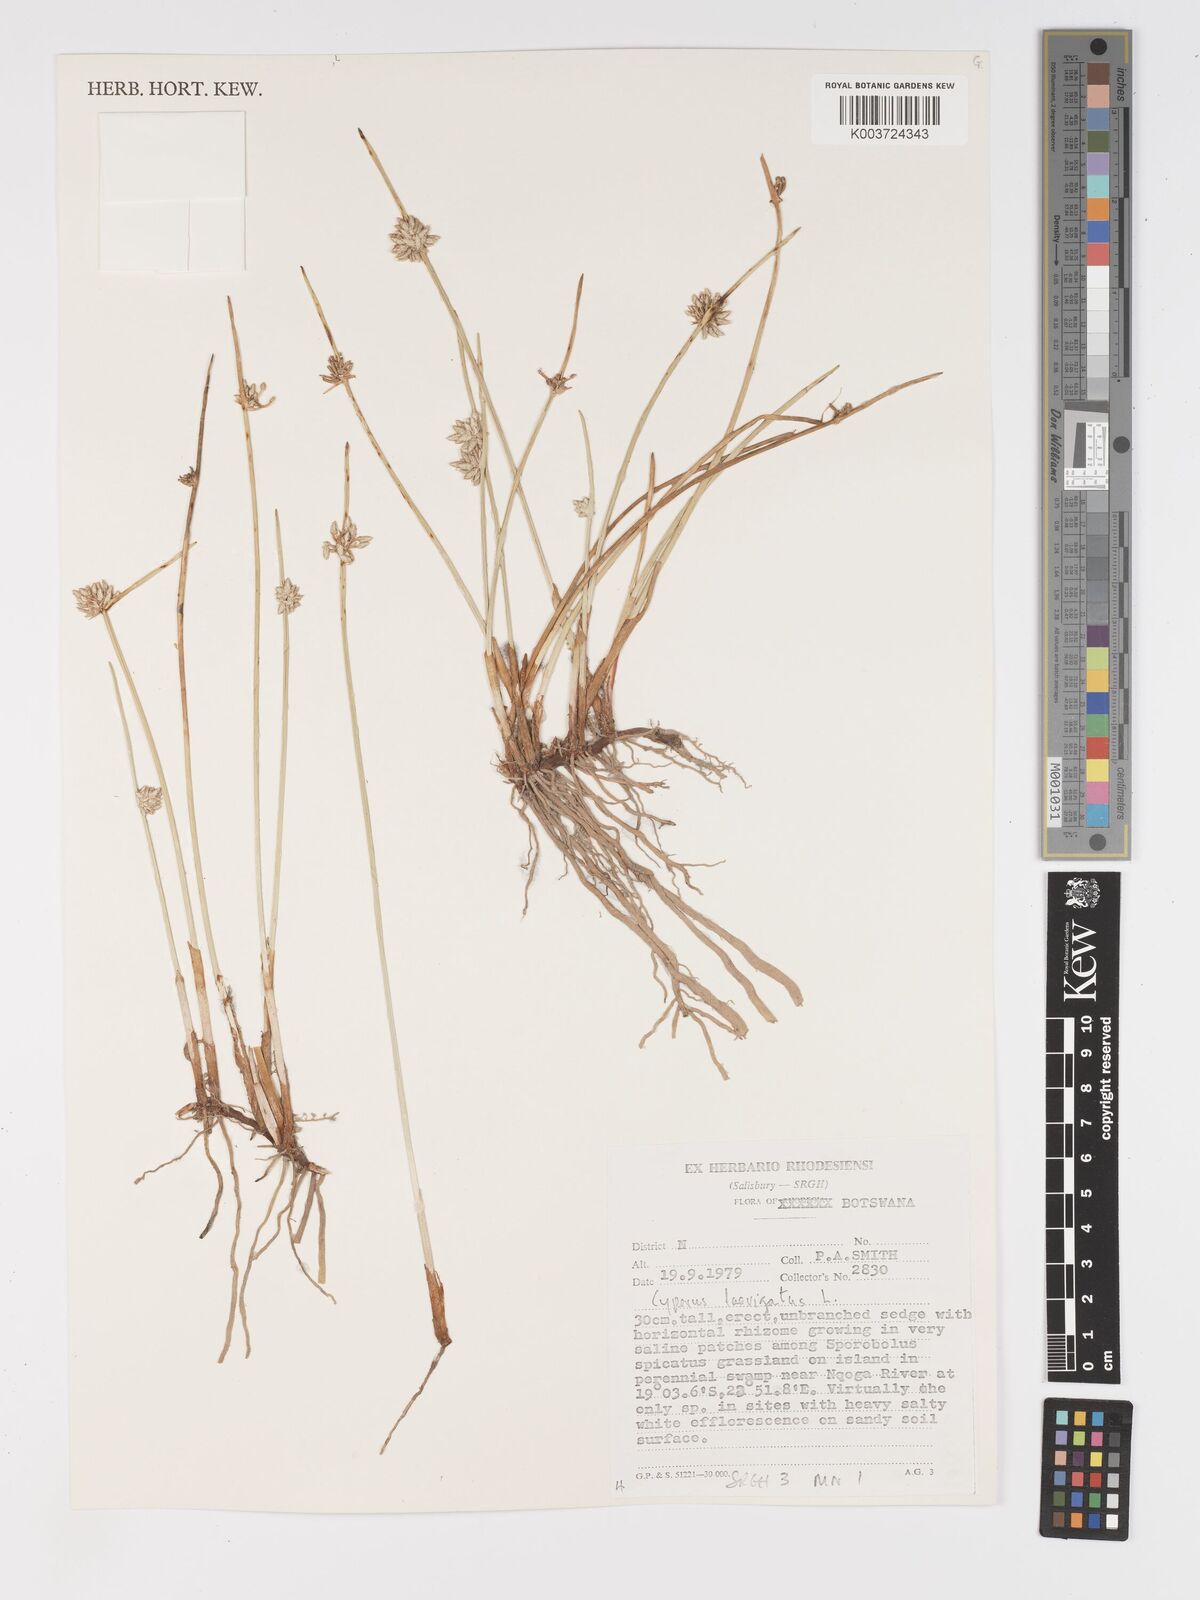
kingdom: Plantae
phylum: Tracheophyta
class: Liliopsida
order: Poales
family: Cyperaceae
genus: Cyperus
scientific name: Cyperus laevigatus
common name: Smooth flat sedge
